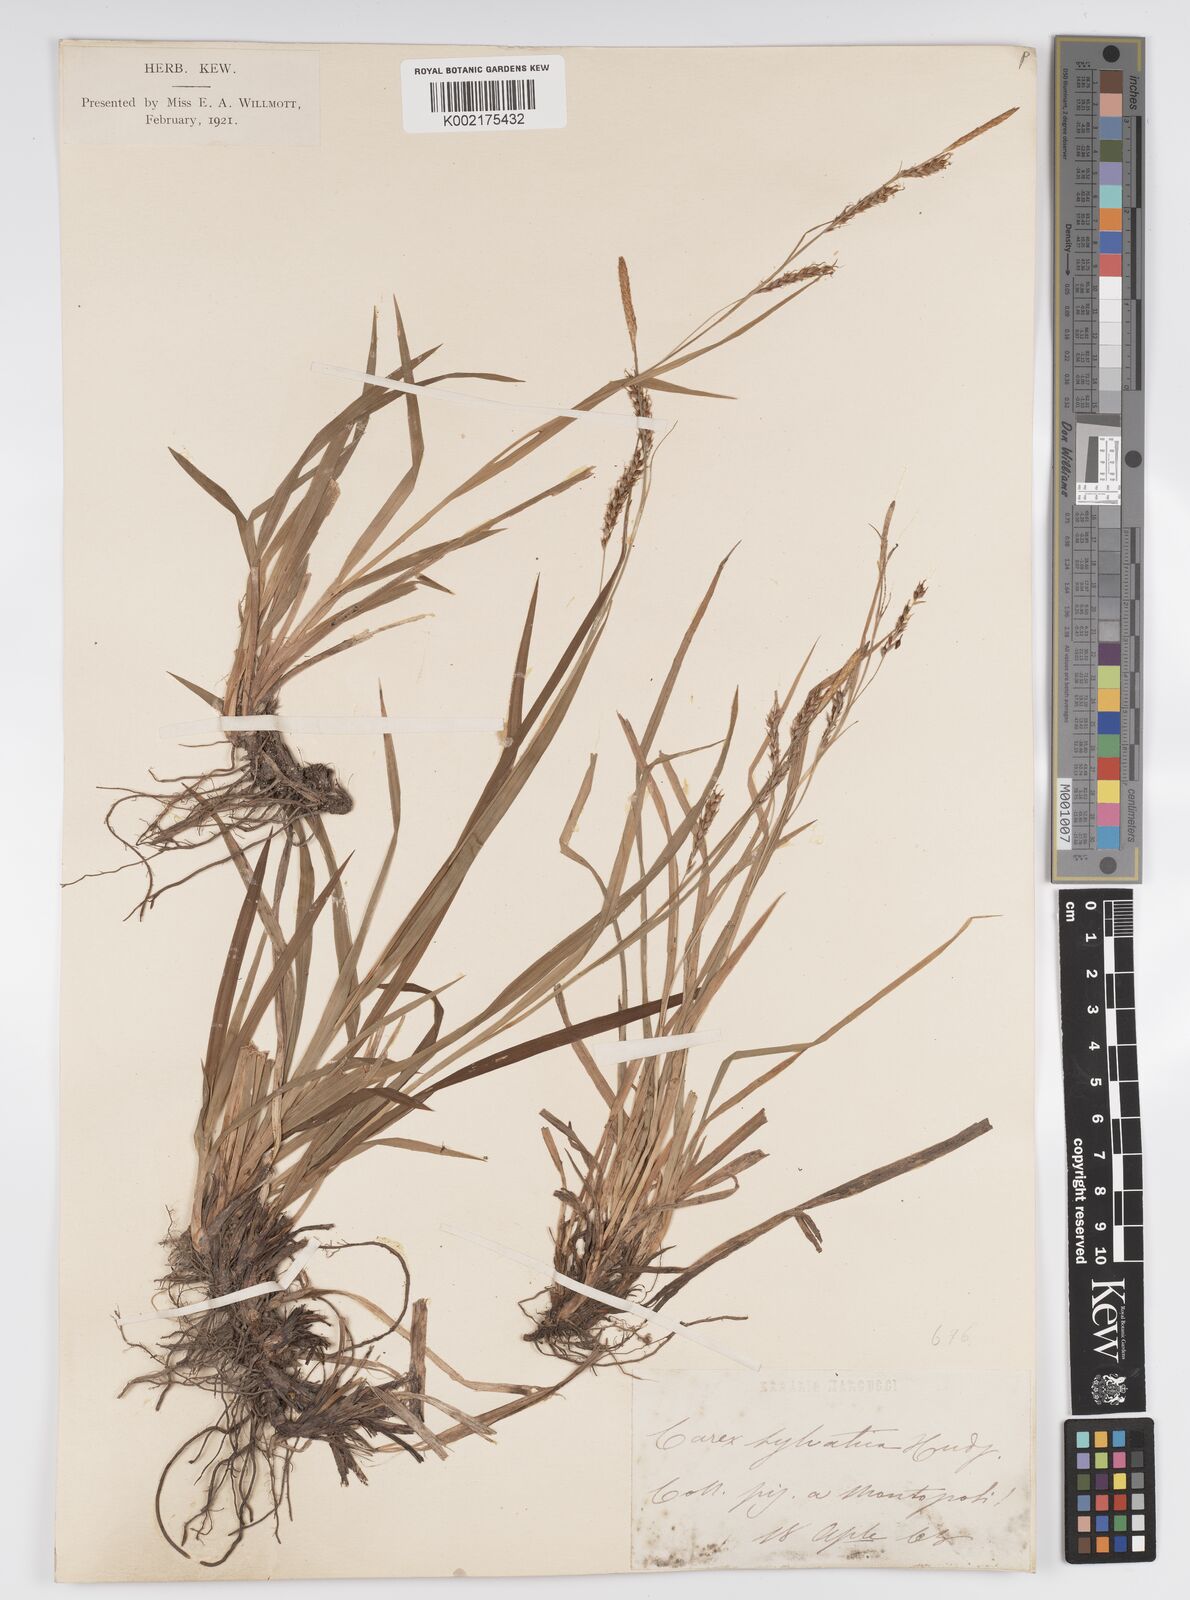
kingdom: Plantae
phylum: Tracheophyta
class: Liliopsida
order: Poales
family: Cyperaceae
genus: Carex
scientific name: Carex sylvatica
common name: Wood-sedge
